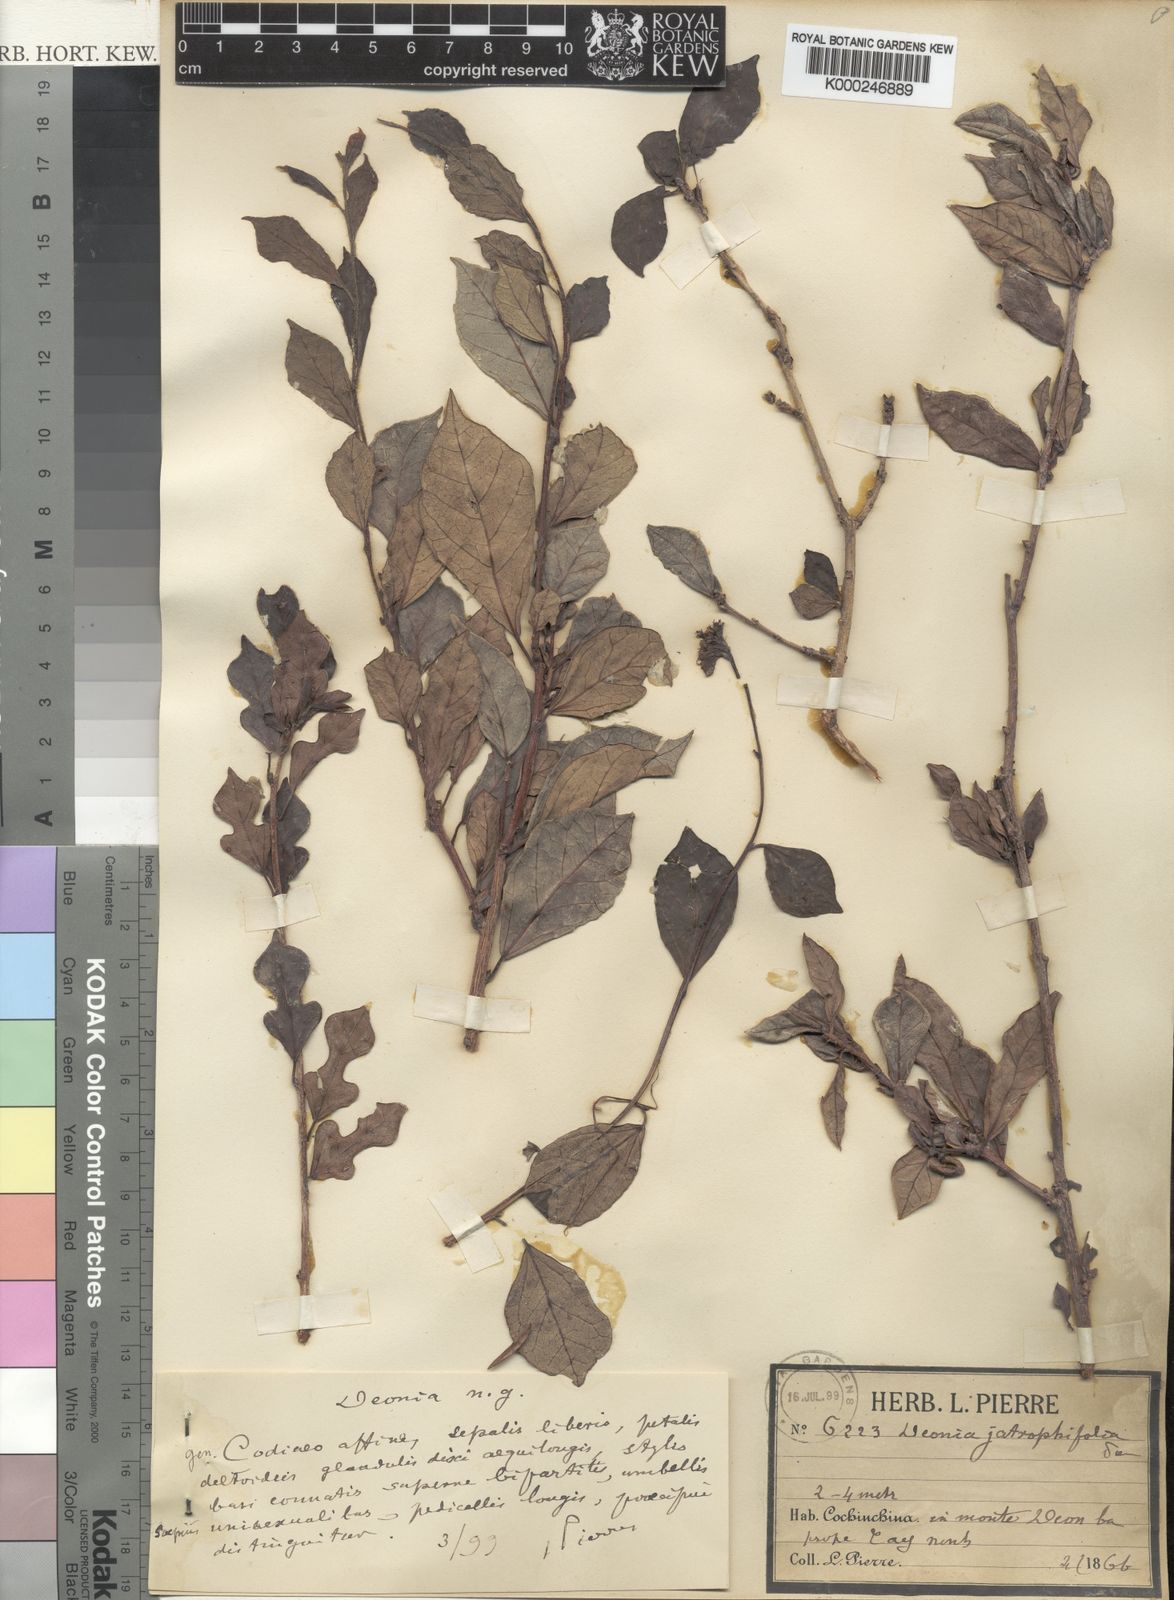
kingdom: Plantae
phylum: Tracheophyta
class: Magnoliopsida
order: Malpighiales
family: Euphorbiaceae
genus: Blachia
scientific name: Blachia jatrophifolia
